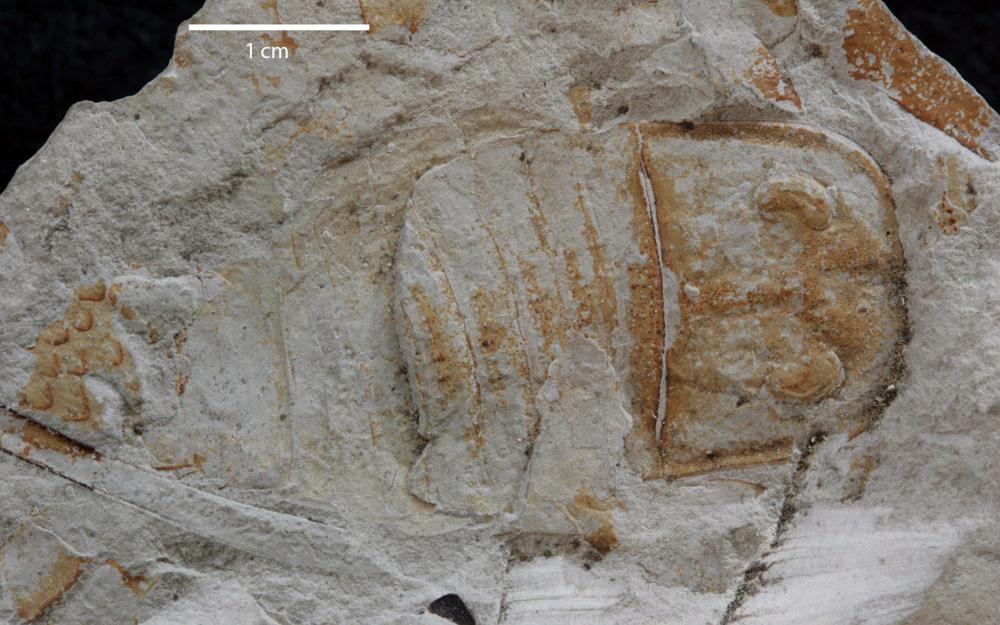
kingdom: Animalia
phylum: Arthropoda
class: Merostomata
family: Eurypteridae
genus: Eurypterus
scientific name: Eurypterus remipes
